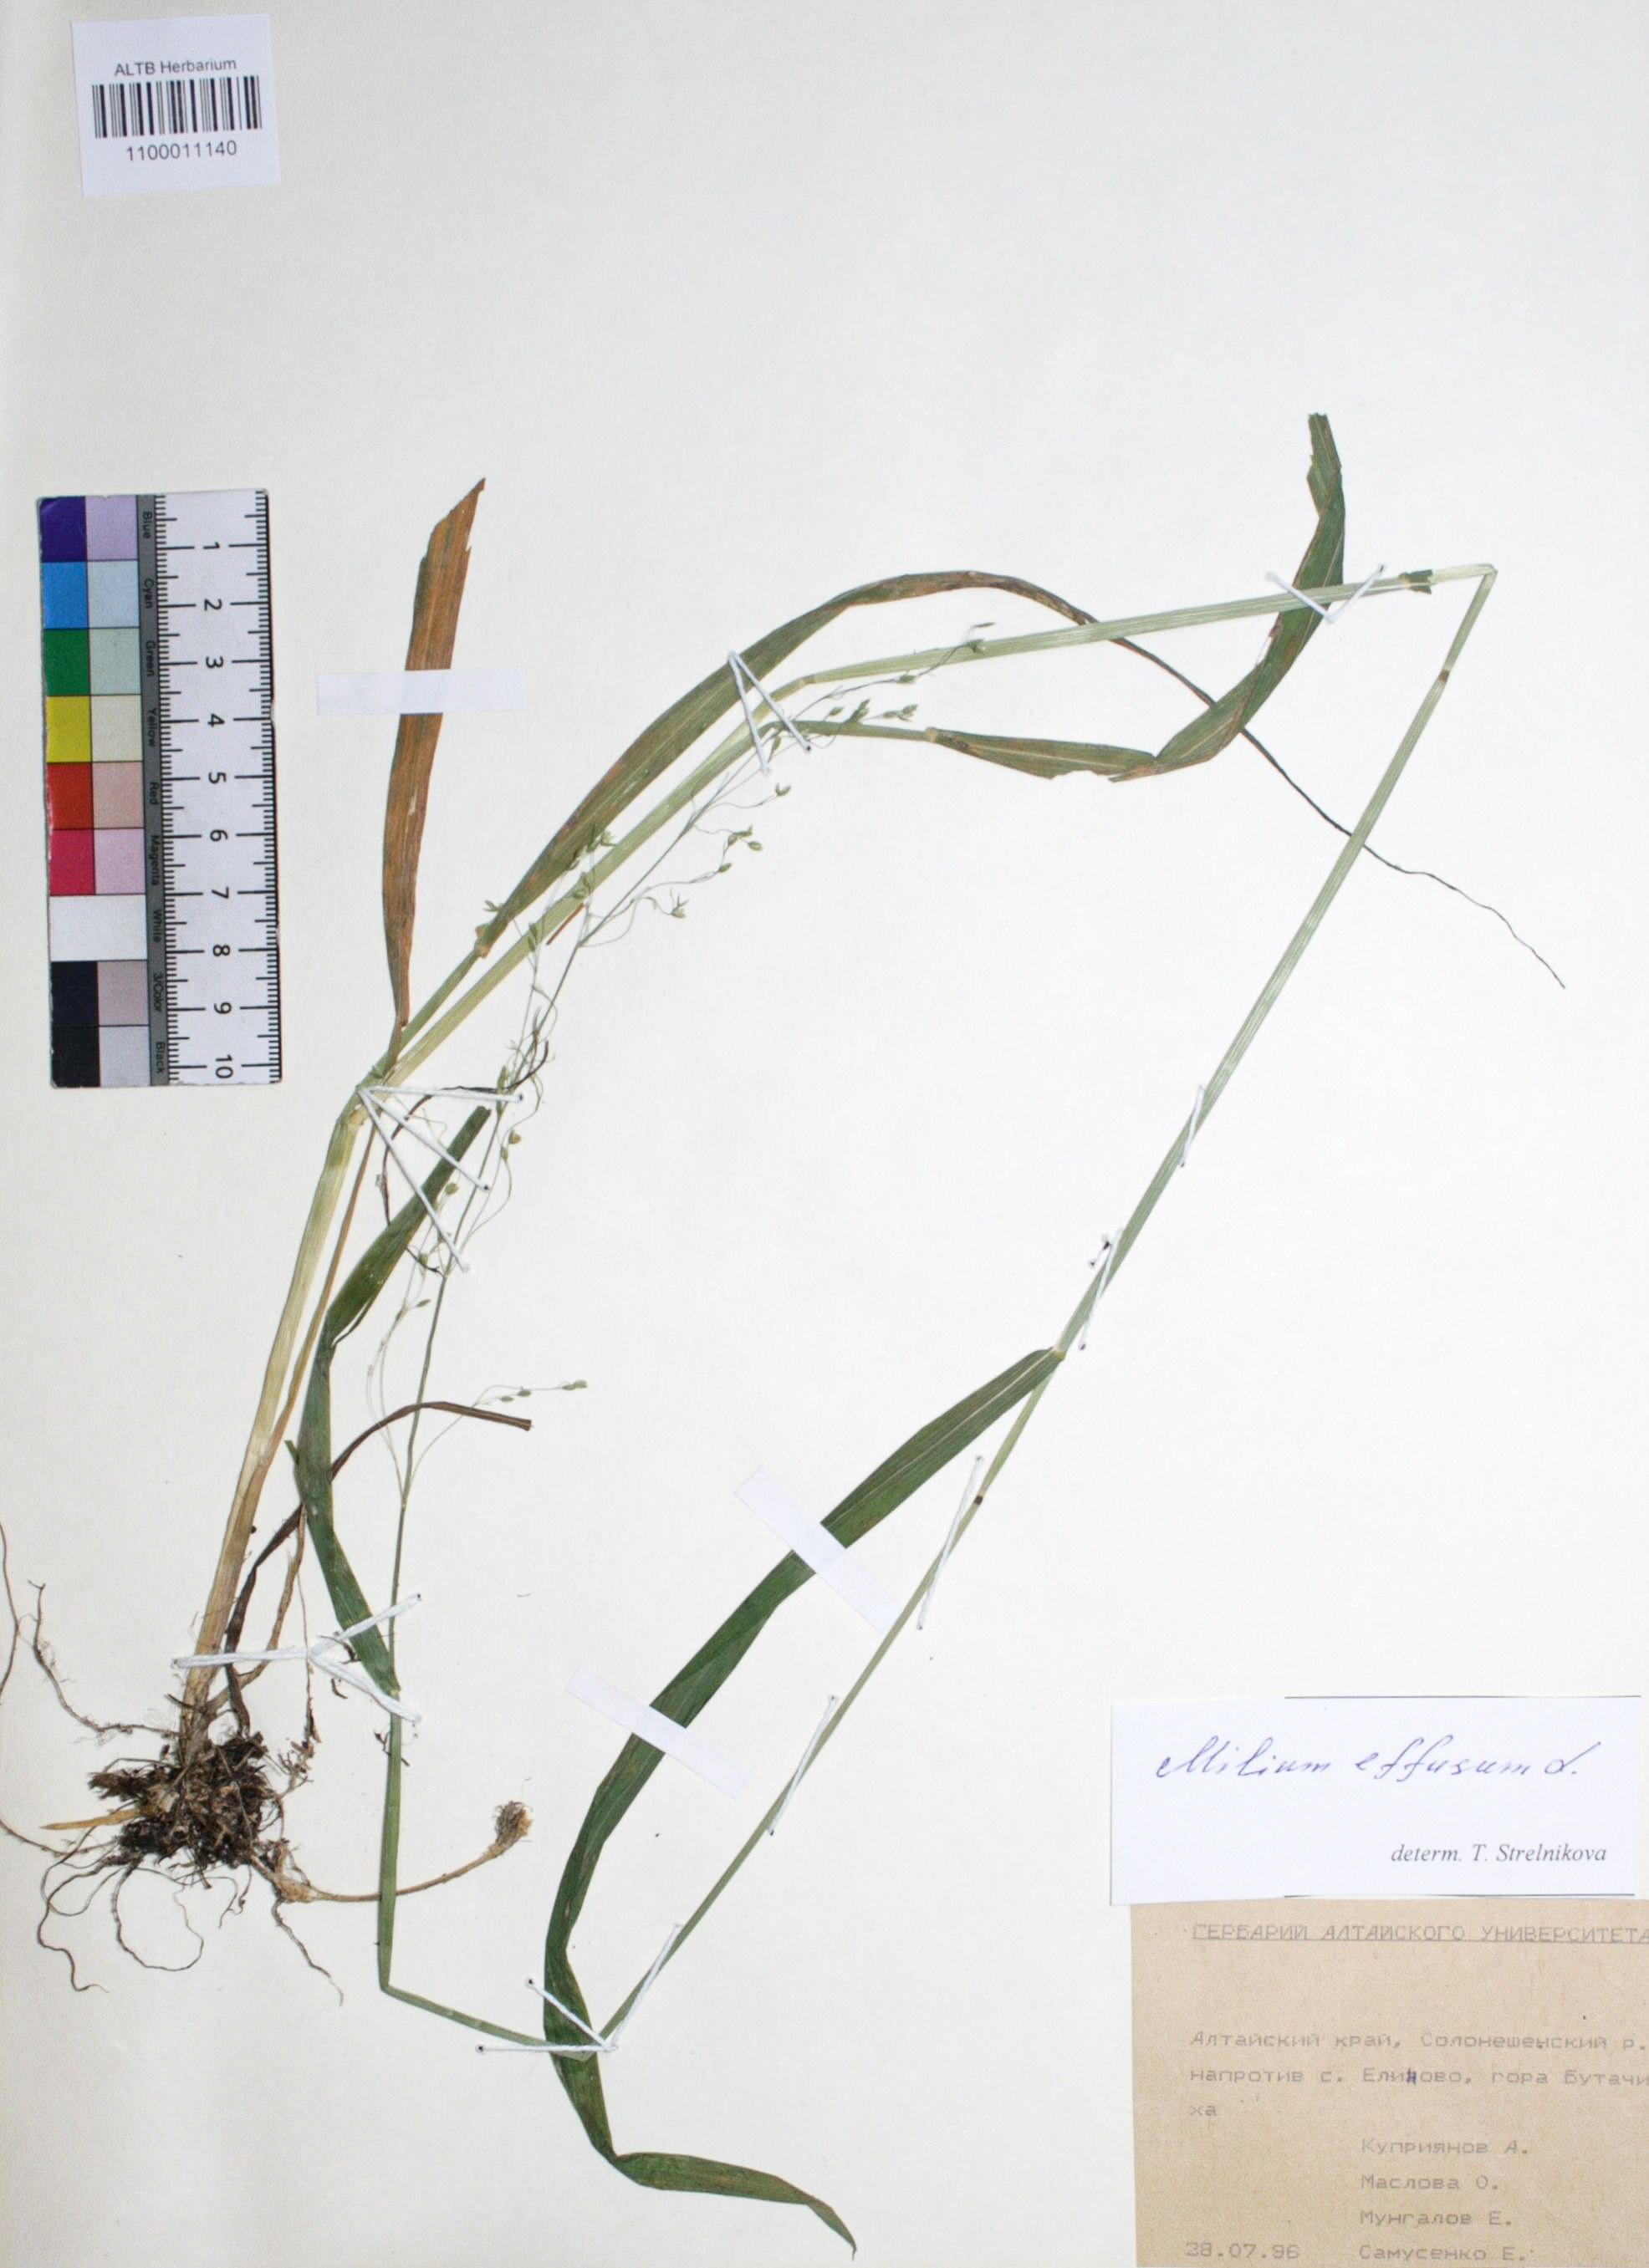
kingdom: Plantae
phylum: Tracheophyta
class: Liliopsida
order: Poales
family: Poaceae
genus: Milium
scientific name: Milium effusum
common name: Wood millet
